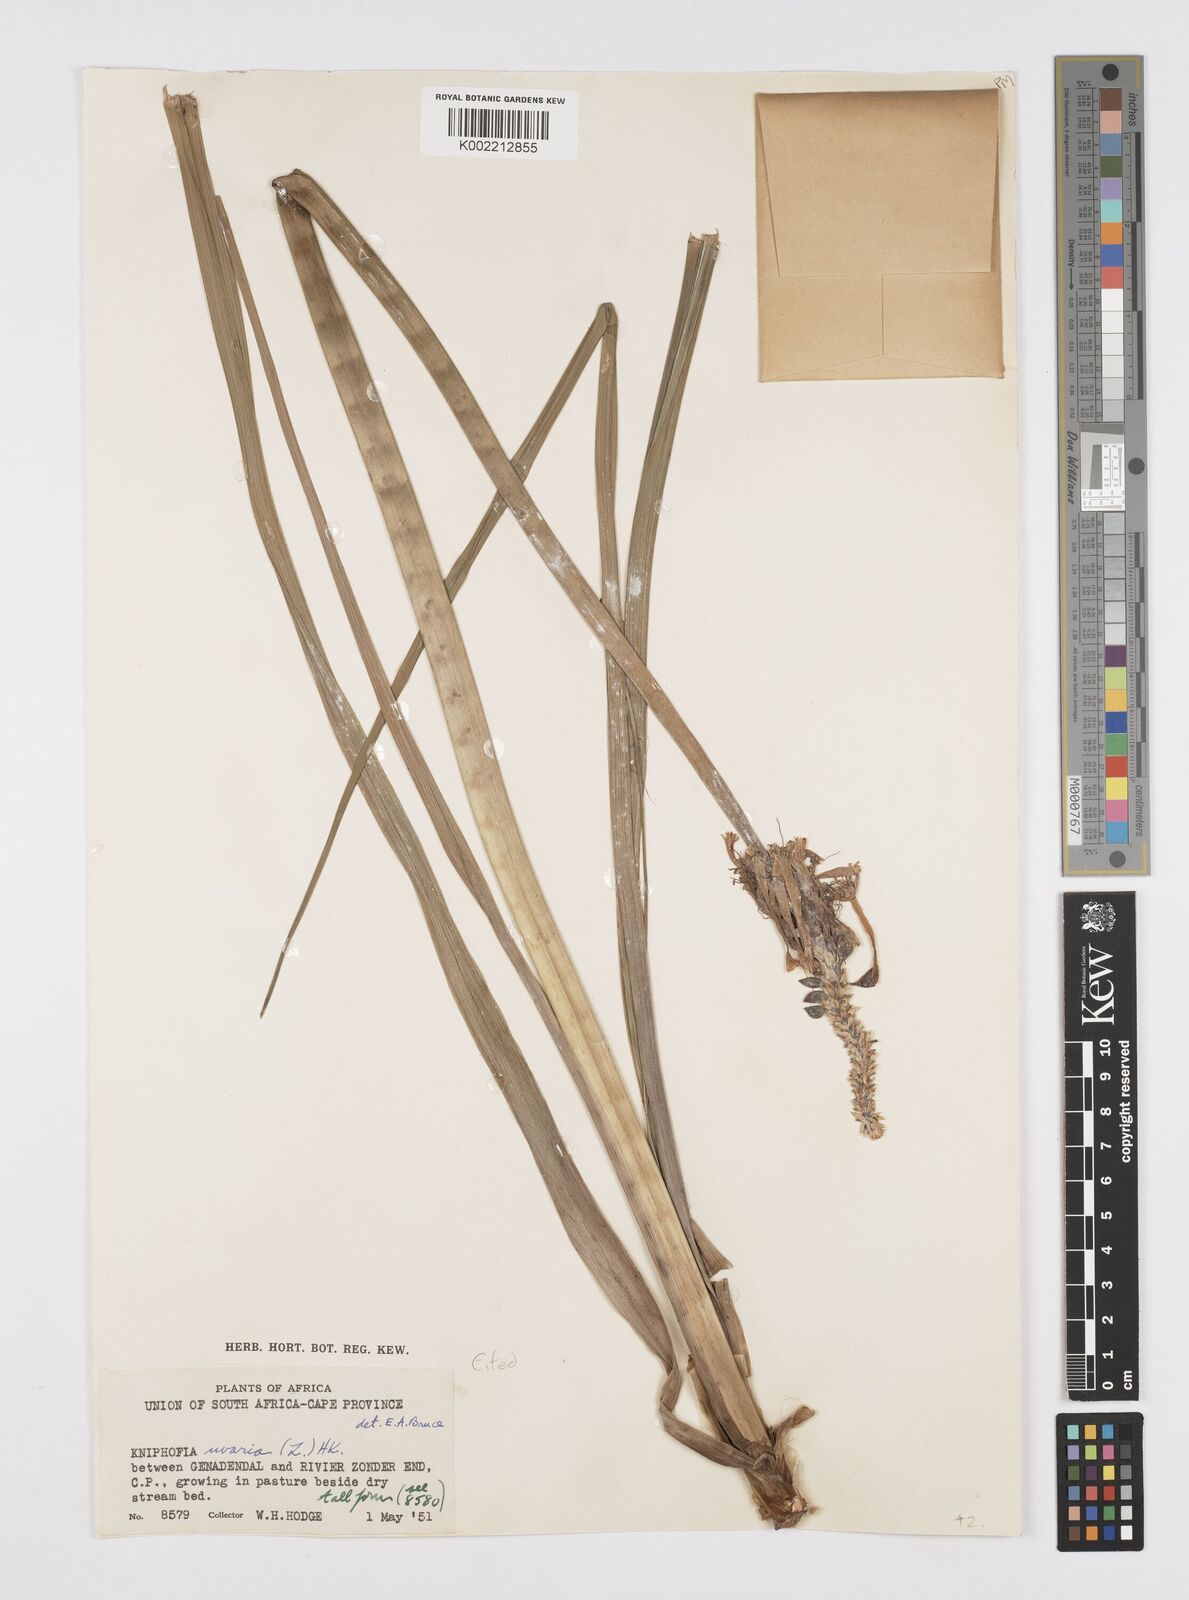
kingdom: Plantae
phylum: Tracheophyta
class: Liliopsida
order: Asparagales
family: Asphodelaceae
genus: Kniphofia
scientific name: Kniphofia uvaria
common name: Red-hot-poker
